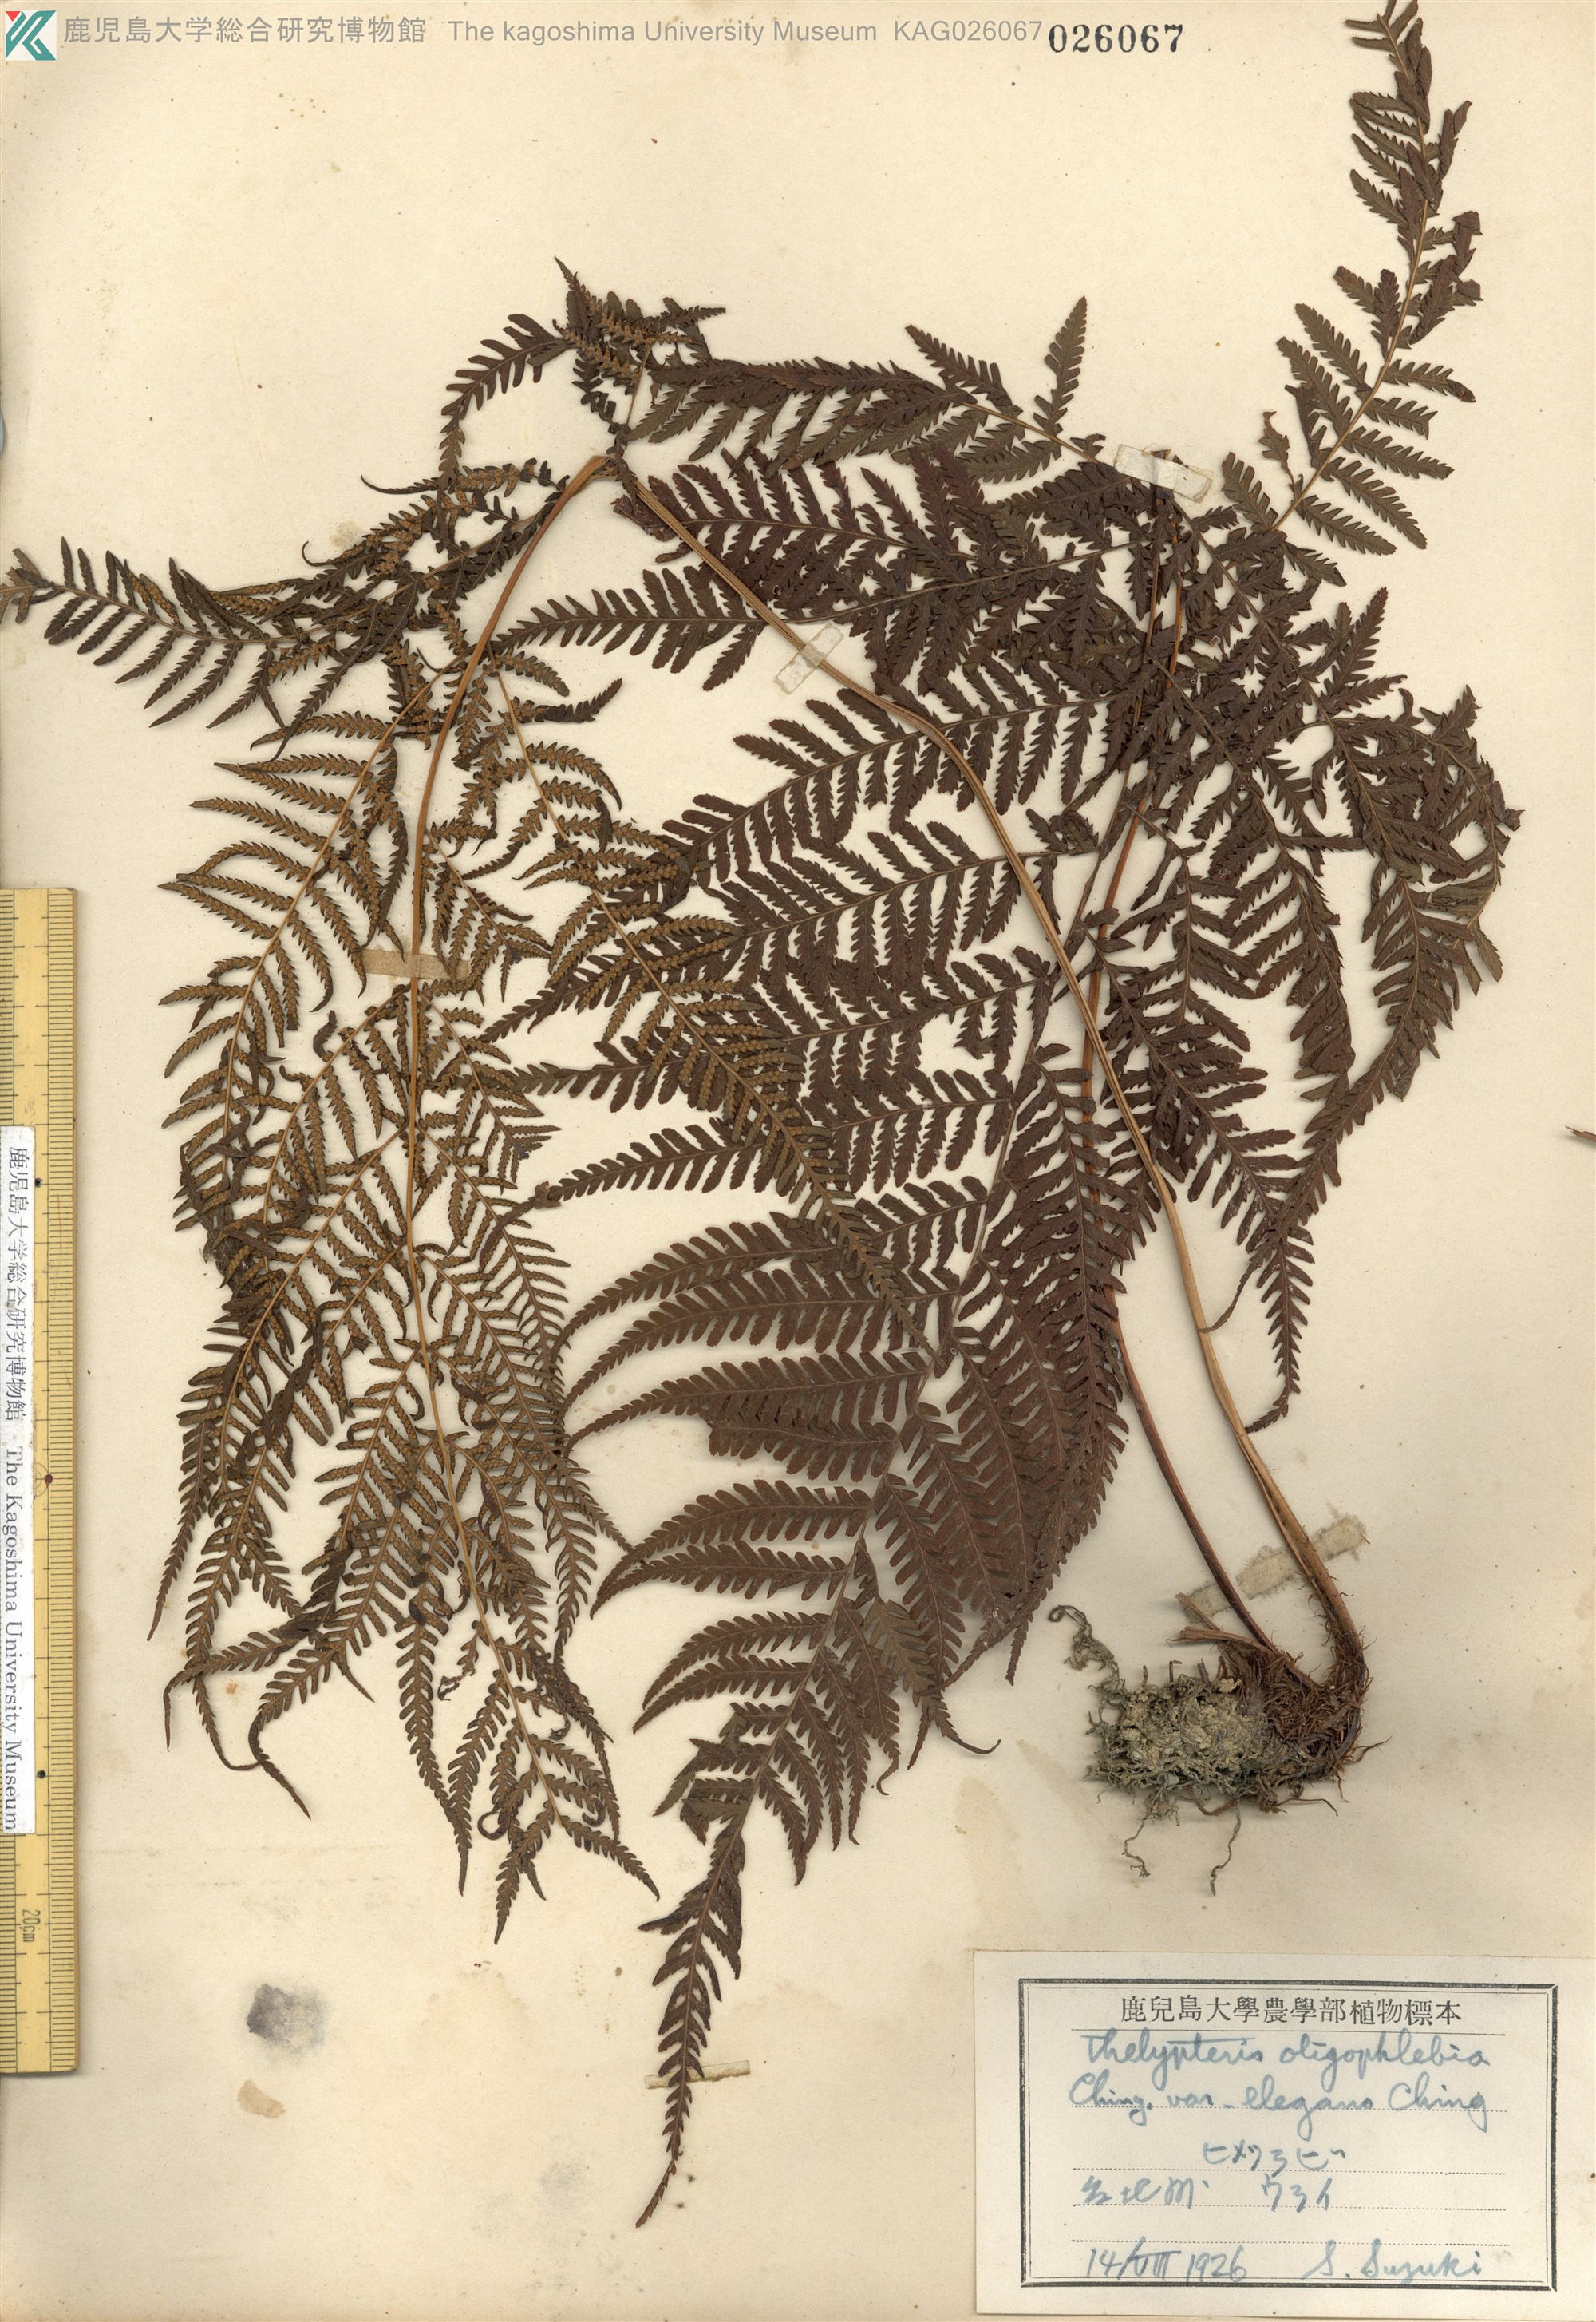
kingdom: Plantae
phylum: Tracheophyta
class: Polypodiopsida
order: Polypodiales
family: Thelypteridaceae
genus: Macrothelypteris
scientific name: Macrothelypteris oligophlebia
